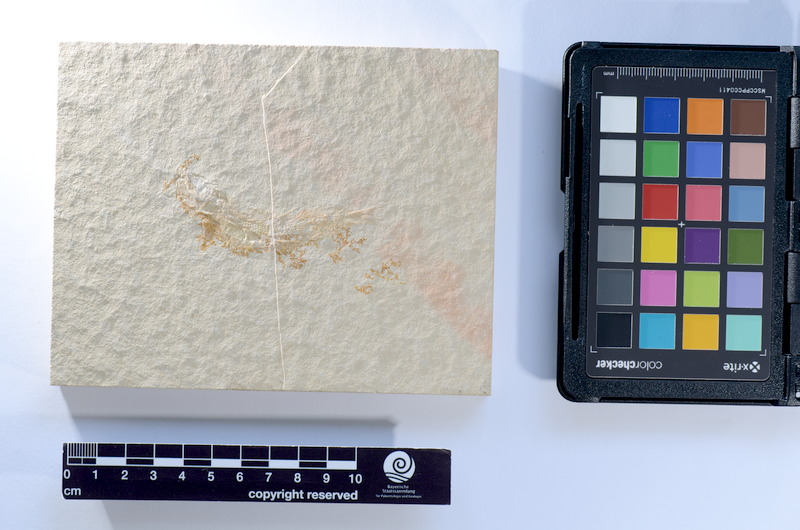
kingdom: Animalia
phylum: Chordata
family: Ascalaboidae
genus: Tharsis
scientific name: Tharsis dubius
